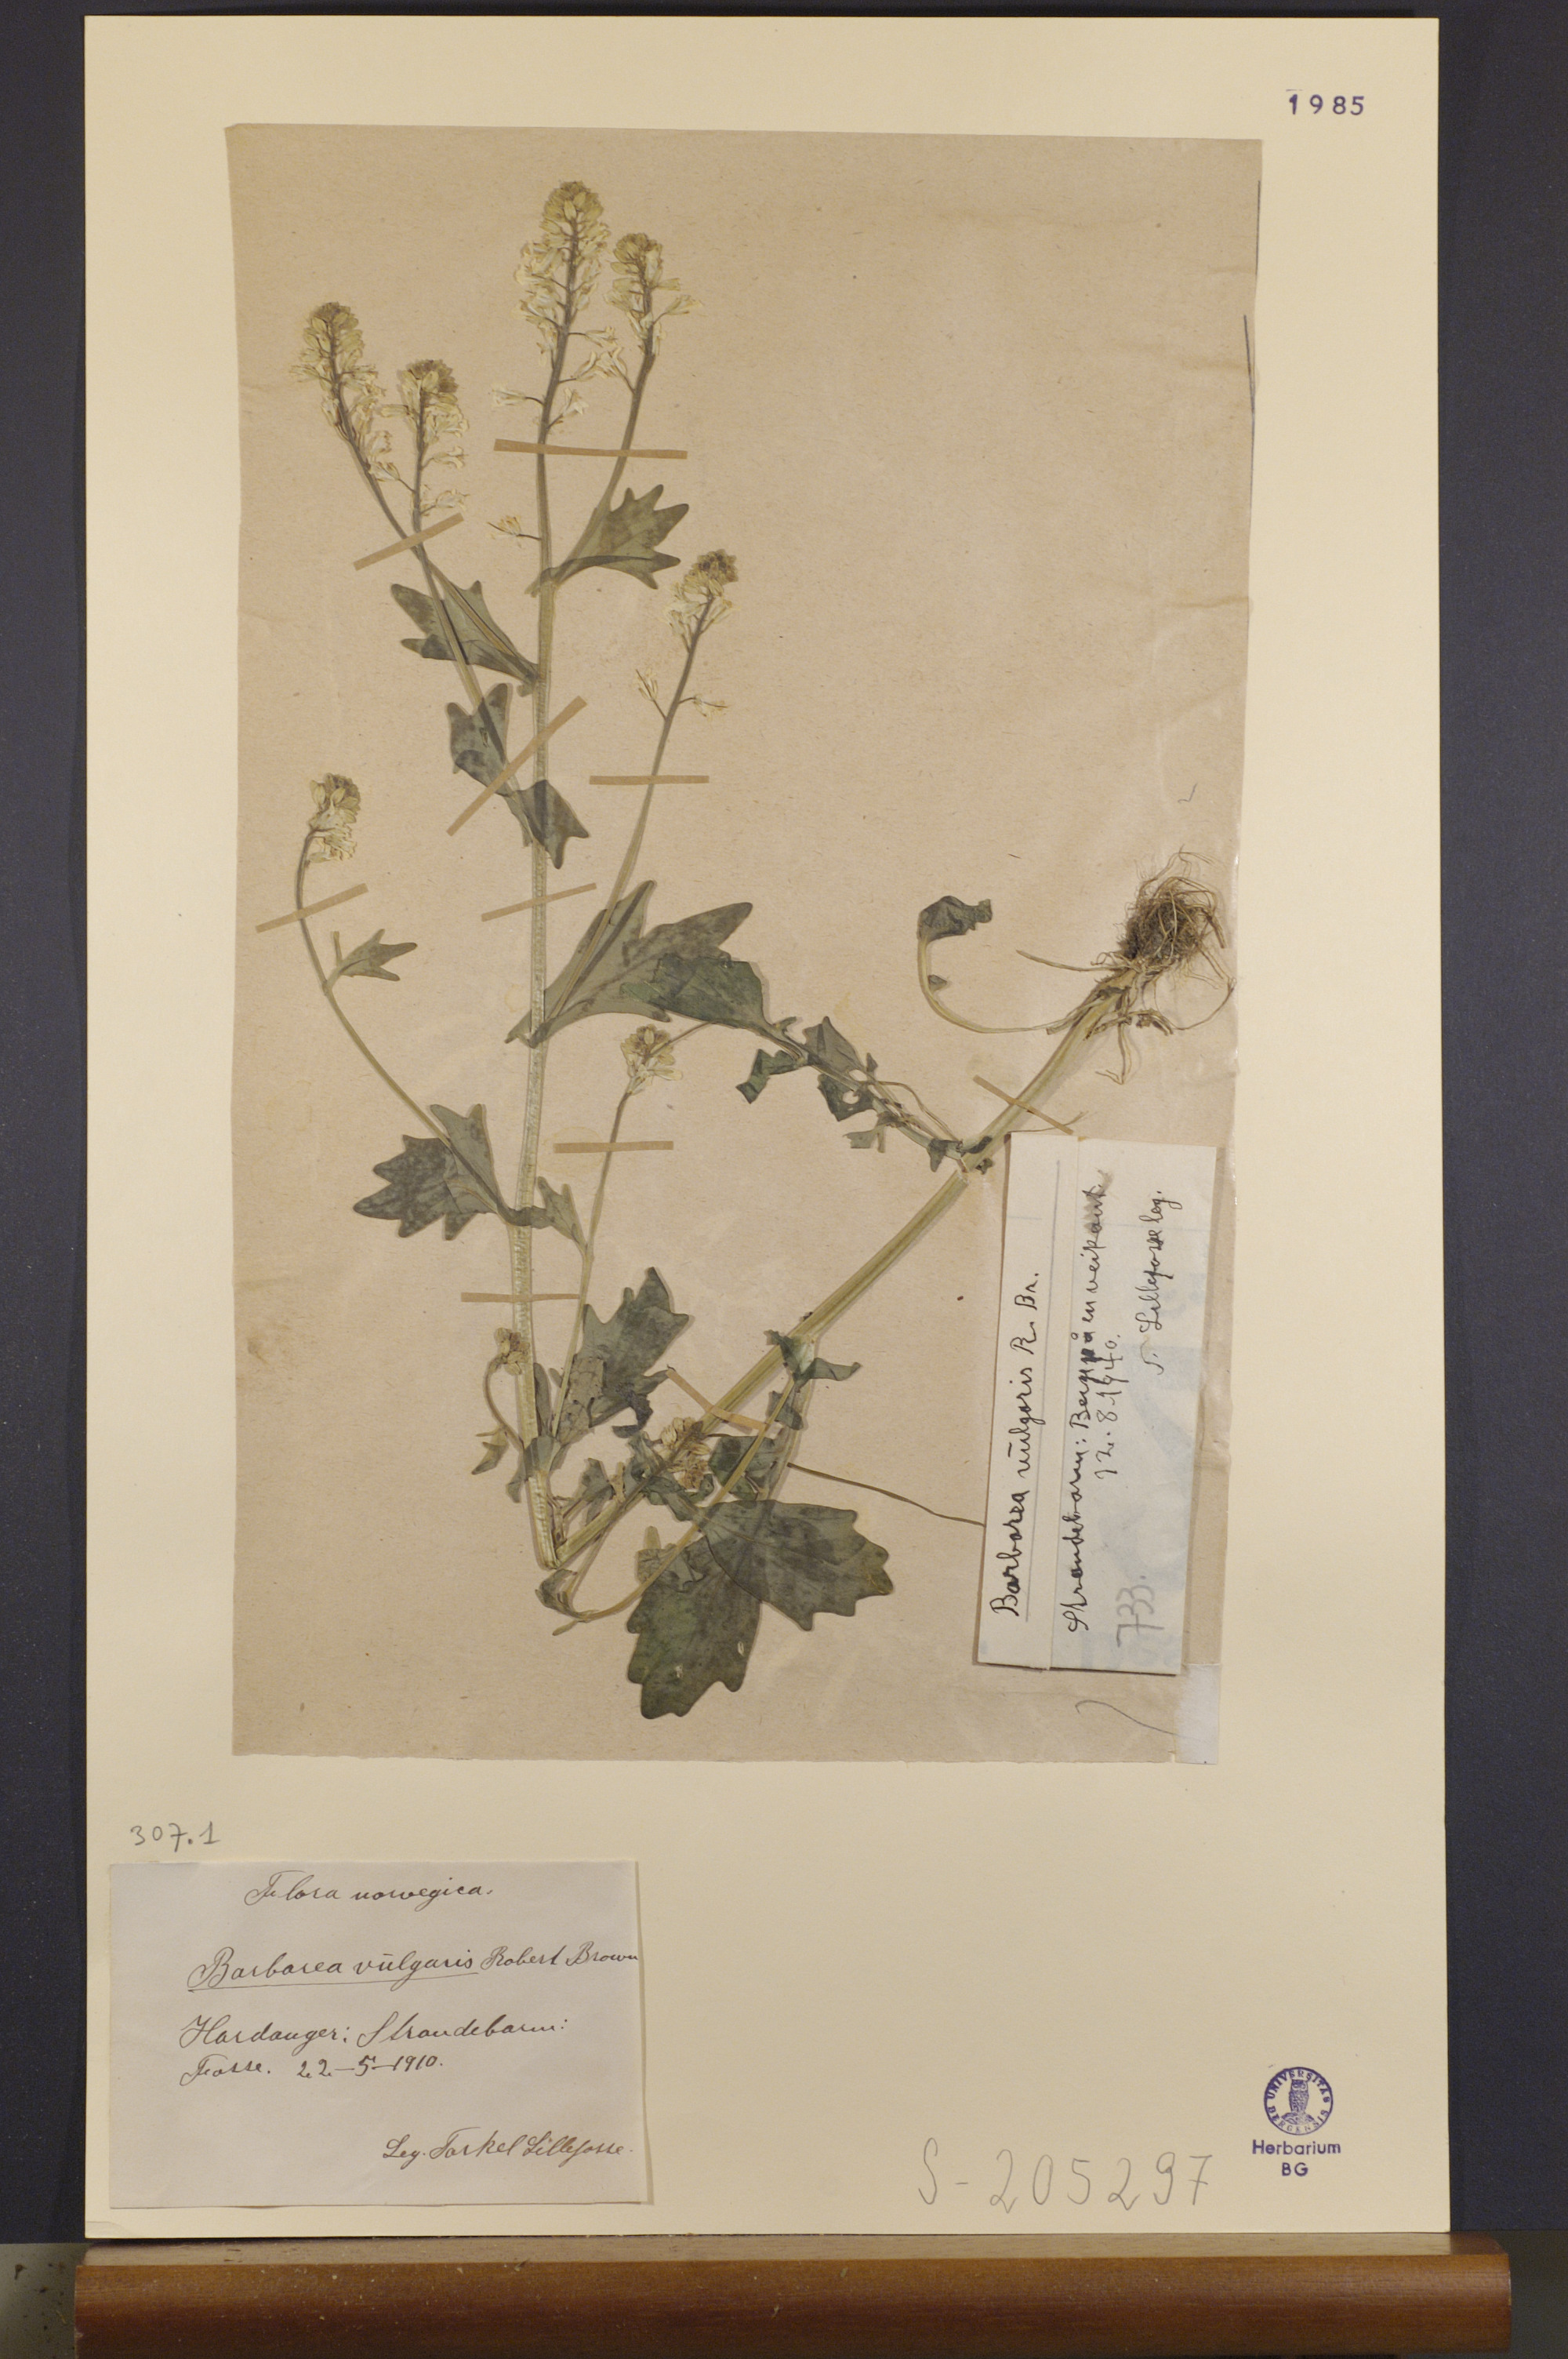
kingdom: Plantae
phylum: Tracheophyta
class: Magnoliopsida
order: Brassicales
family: Brassicaceae
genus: Barbarea
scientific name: Barbarea vulgaris
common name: Cressy-greens
